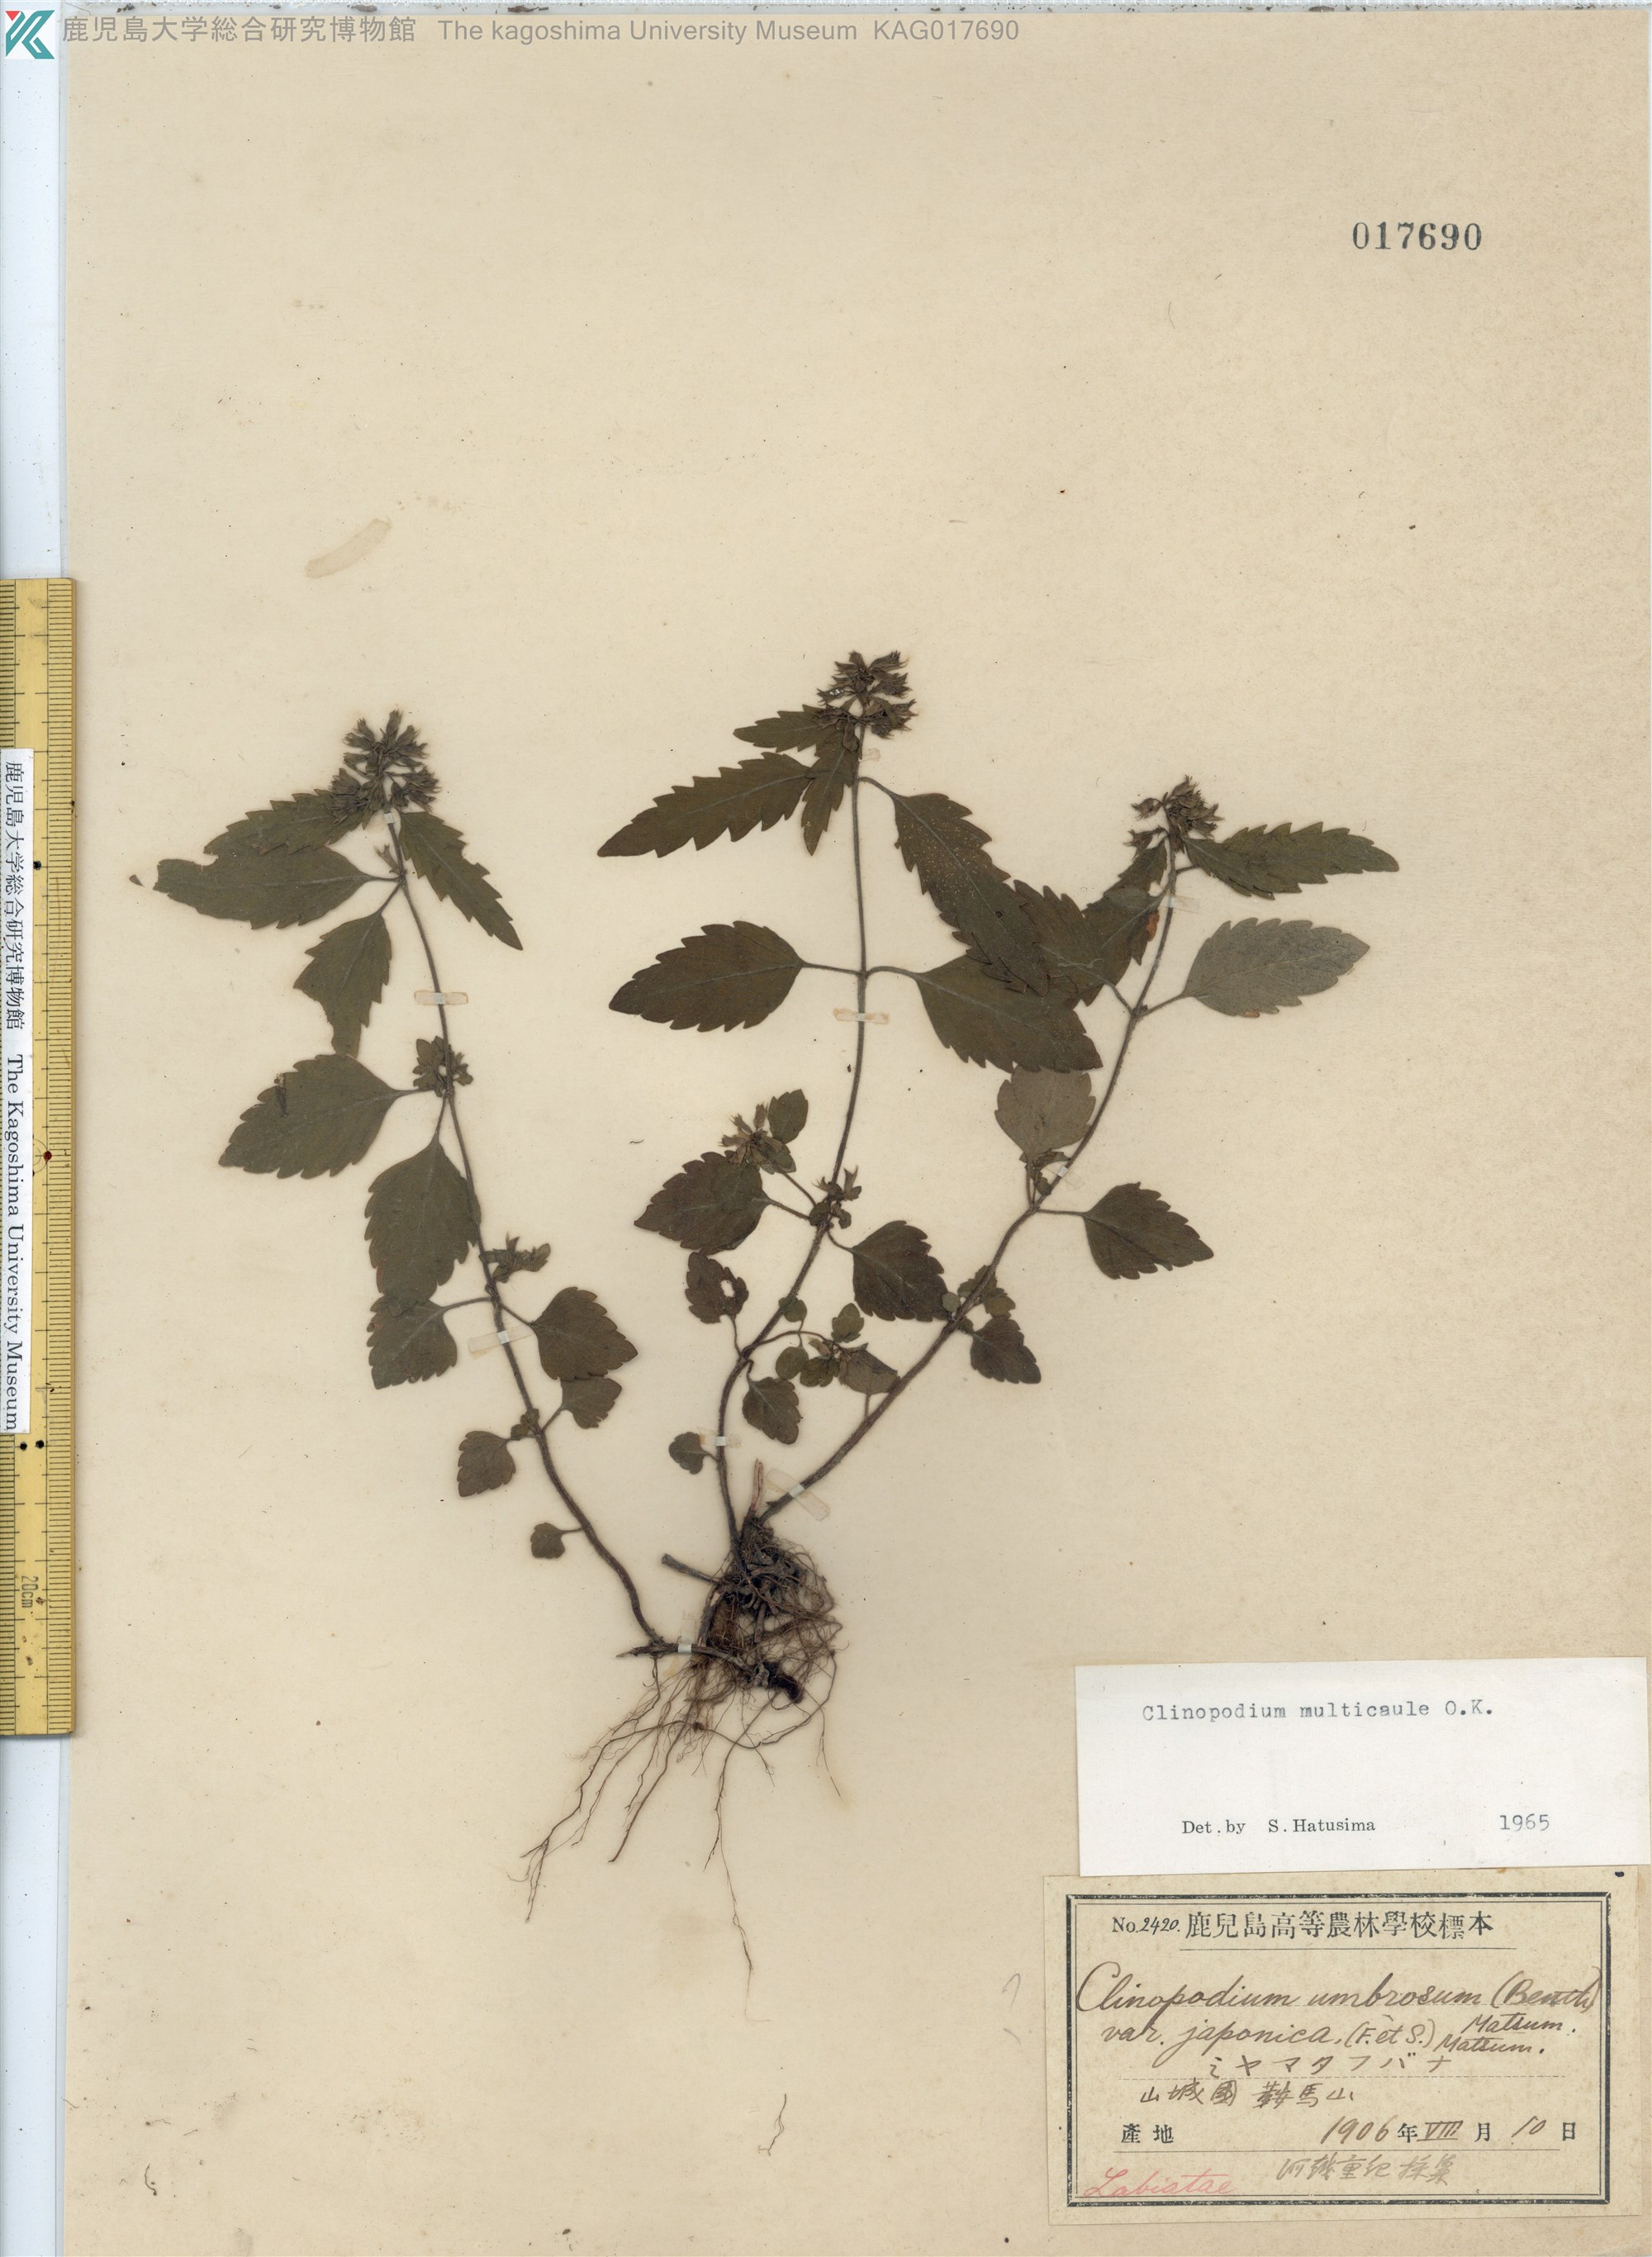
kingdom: Plantae
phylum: Tracheophyta
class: Magnoliopsida
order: Lamiales
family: Lamiaceae
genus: Clinopodium
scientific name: Clinopodium multicaule
